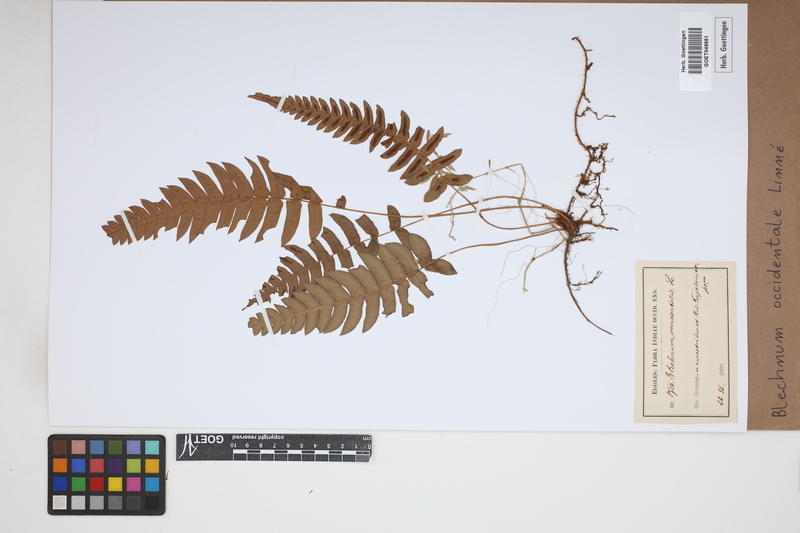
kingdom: Plantae
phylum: Tracheophyta
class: Polypodiopsida
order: Polypodiales
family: Blechnaceae
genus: Blechnum
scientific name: Blechnum occidentale
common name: Hammock fern
